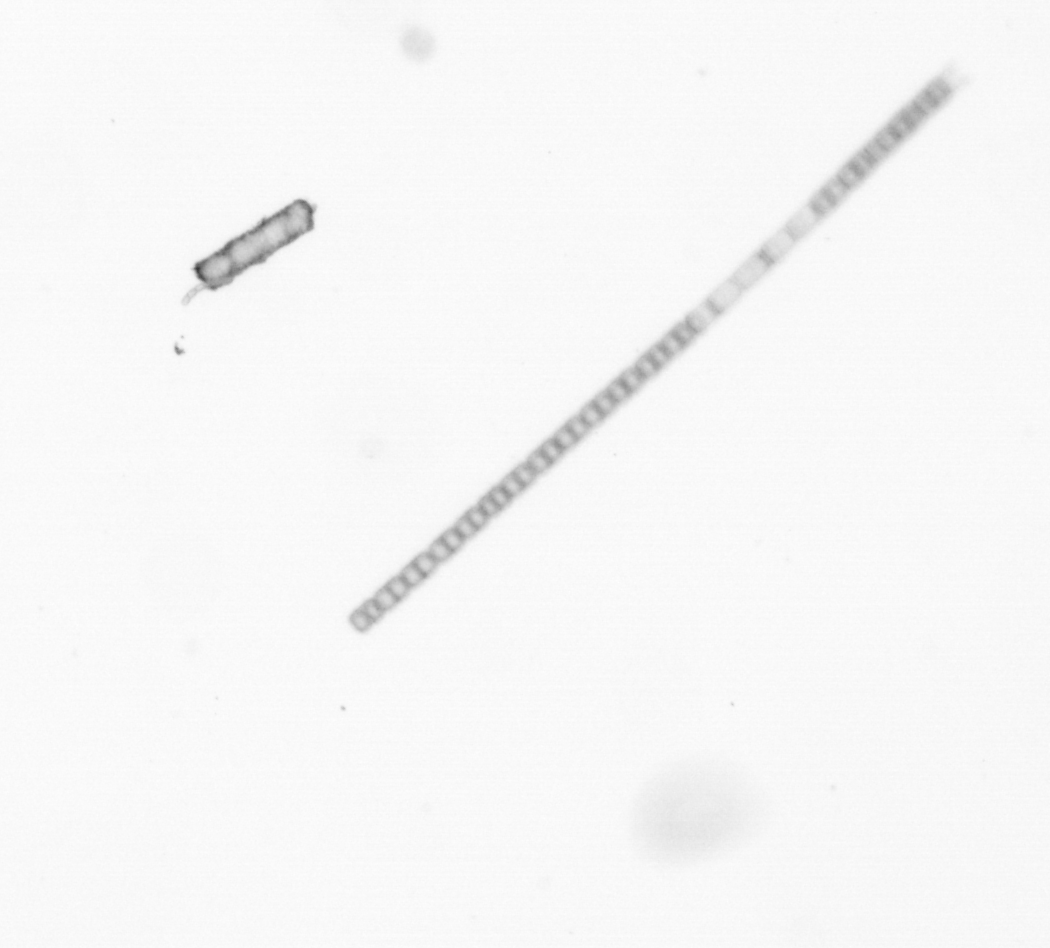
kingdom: Chromista
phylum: Ochrophyta
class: Bacillariophyceae
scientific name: Bacillariophyceae
